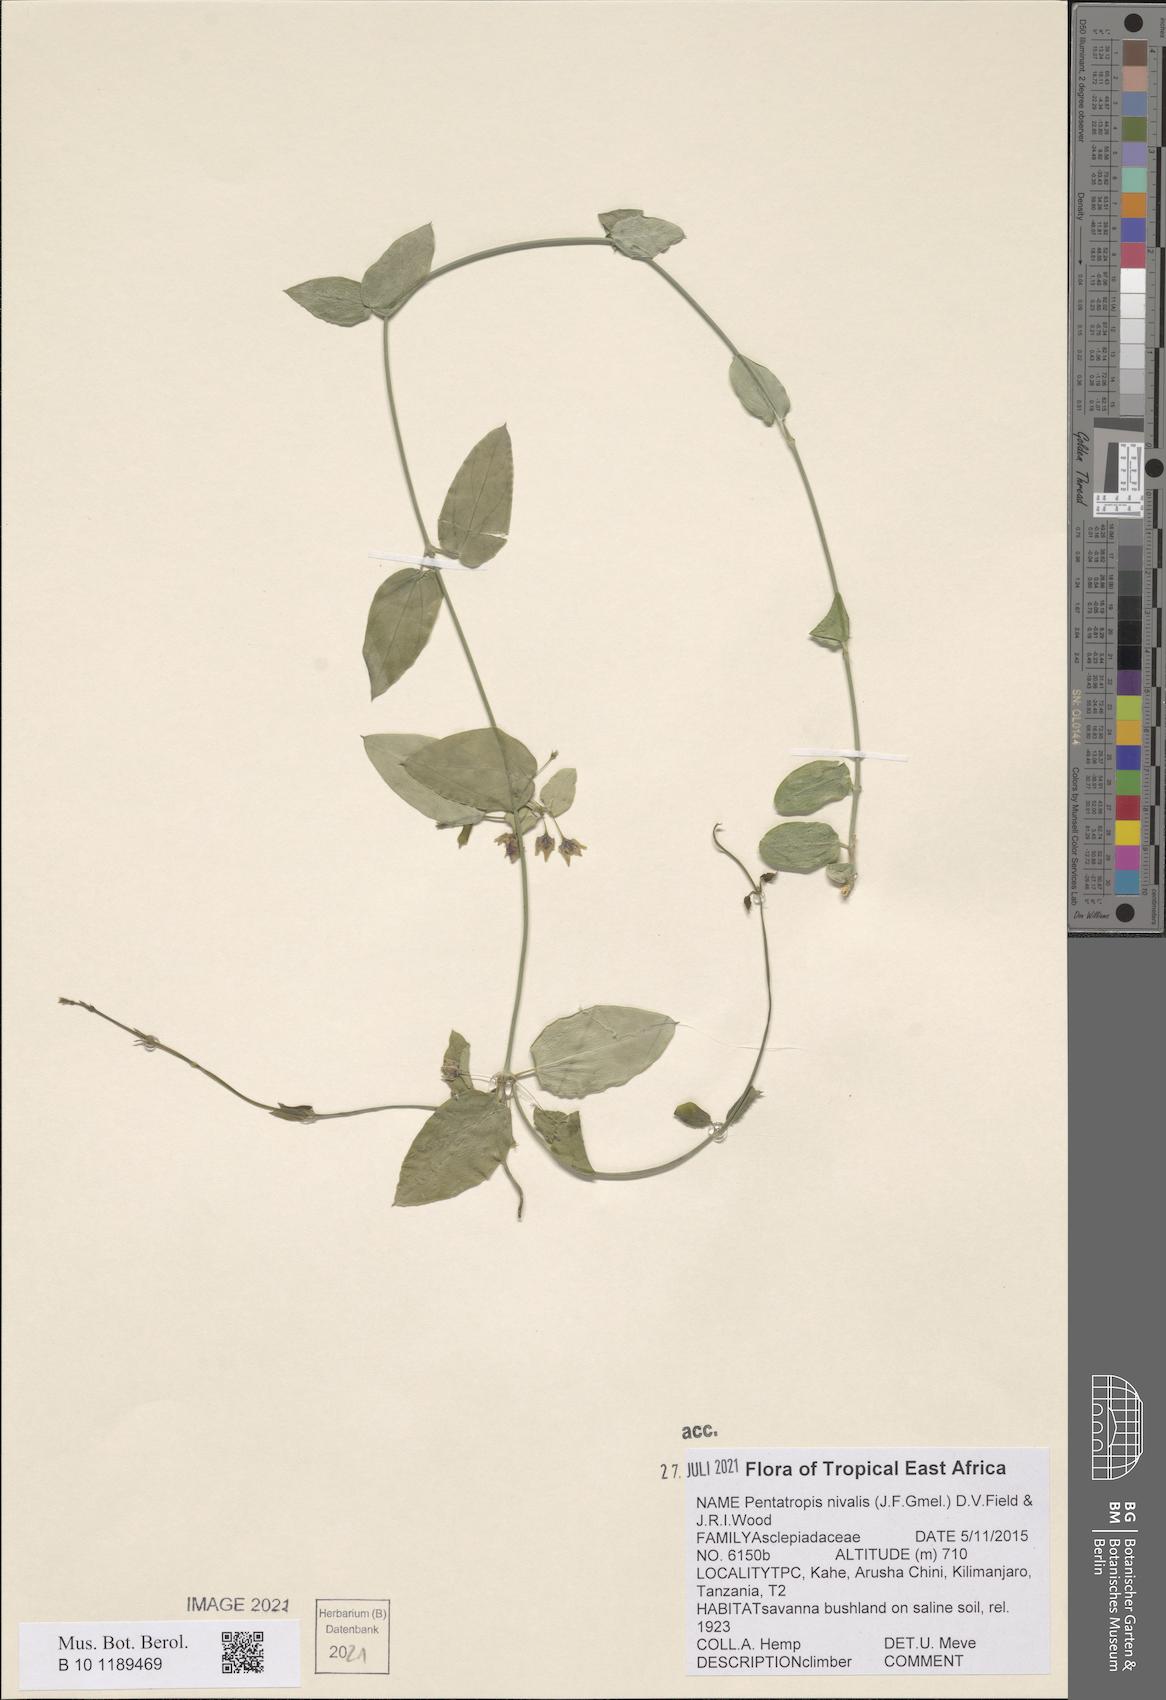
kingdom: Plantae
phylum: Tracheophyta
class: Magnoliopsida
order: Gentianales
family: Apocynaceae
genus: Pentatropis
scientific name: Pentatropis nivalis
